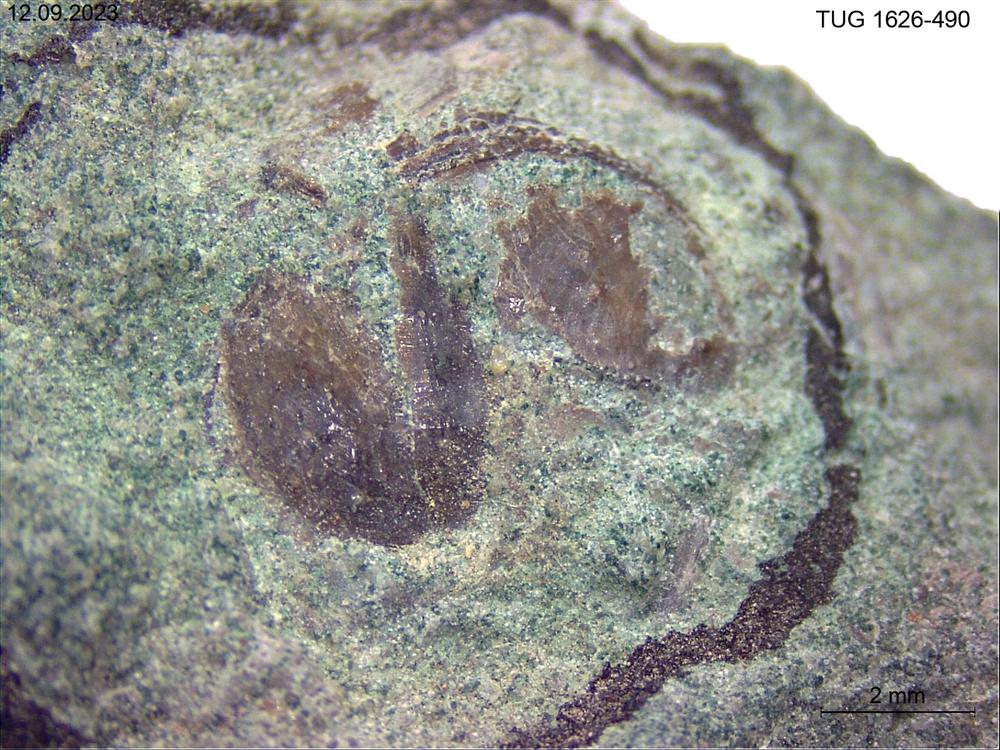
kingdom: Animalia
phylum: Brachiopoda
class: Lingulata
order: Siphonotretida
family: Siphonotretidae
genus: Siphonotreta
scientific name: Siphonotreta
